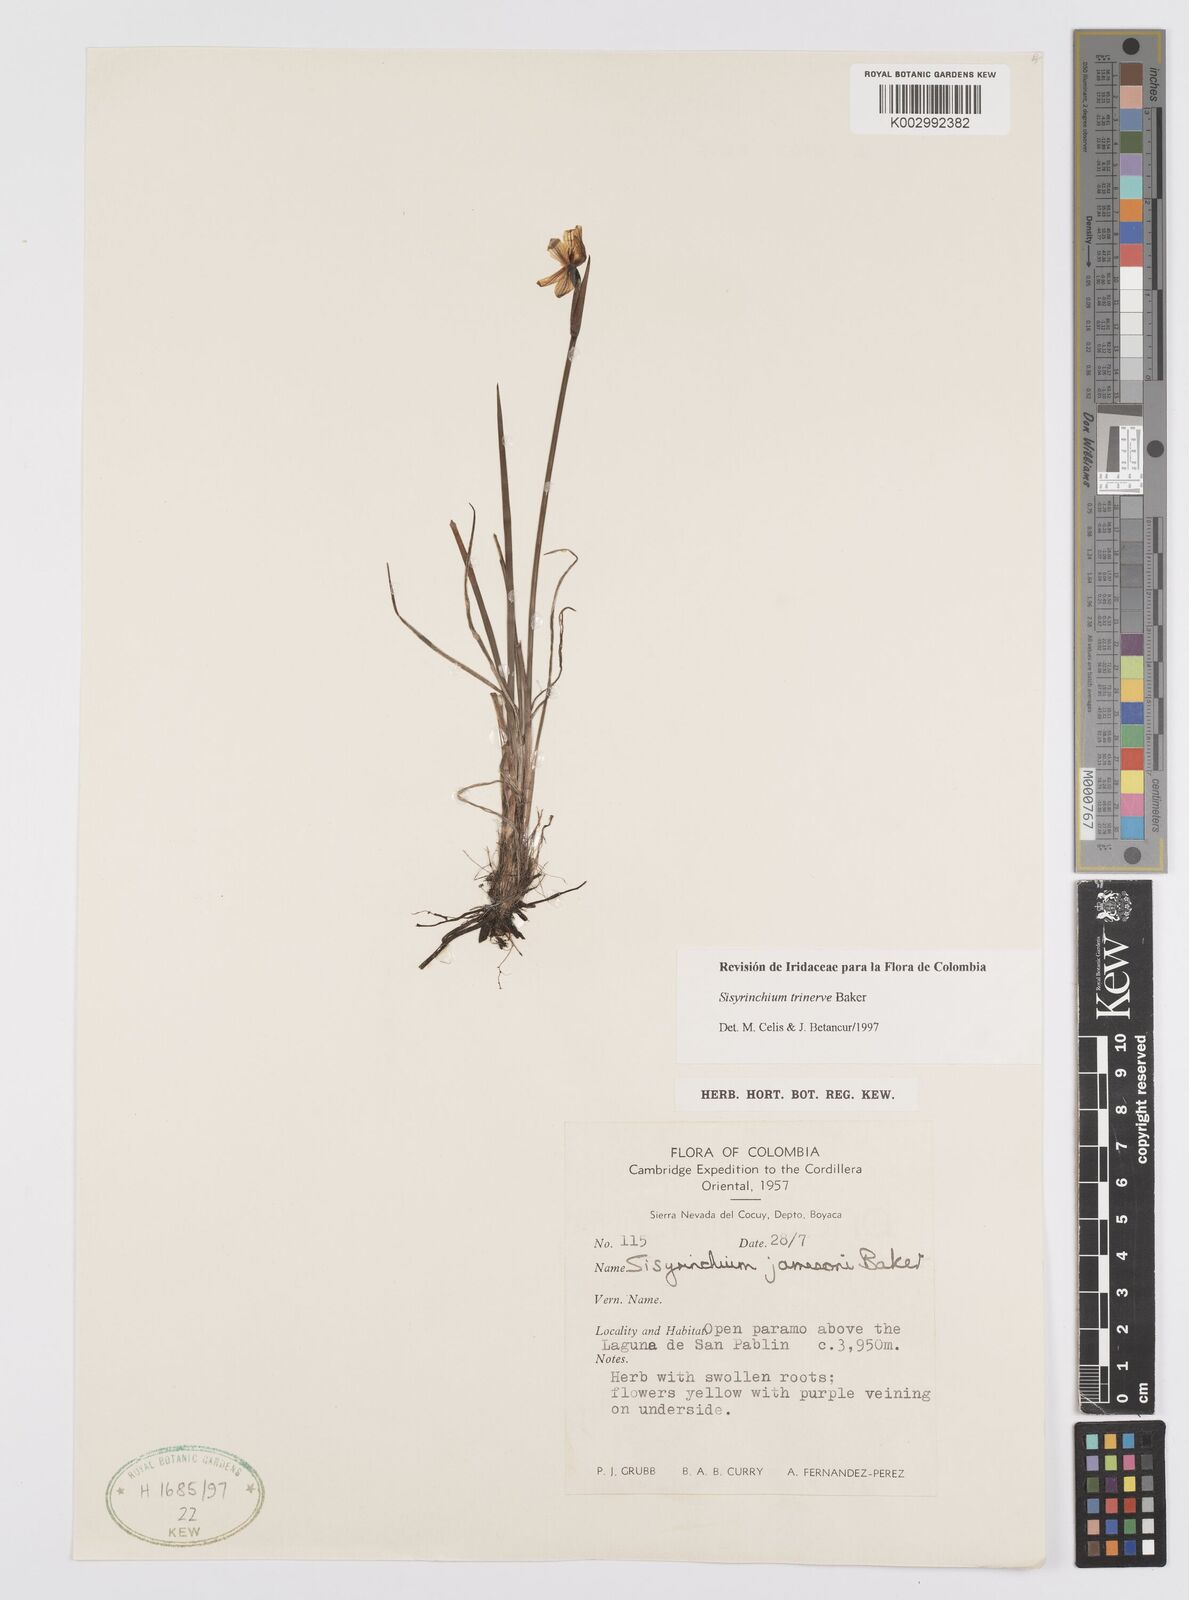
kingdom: Plantae
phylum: Tracheophyta
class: Liliopsida
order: Asparagales
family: Iridaceae
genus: Olsynium
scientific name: Olsynium trinerve
